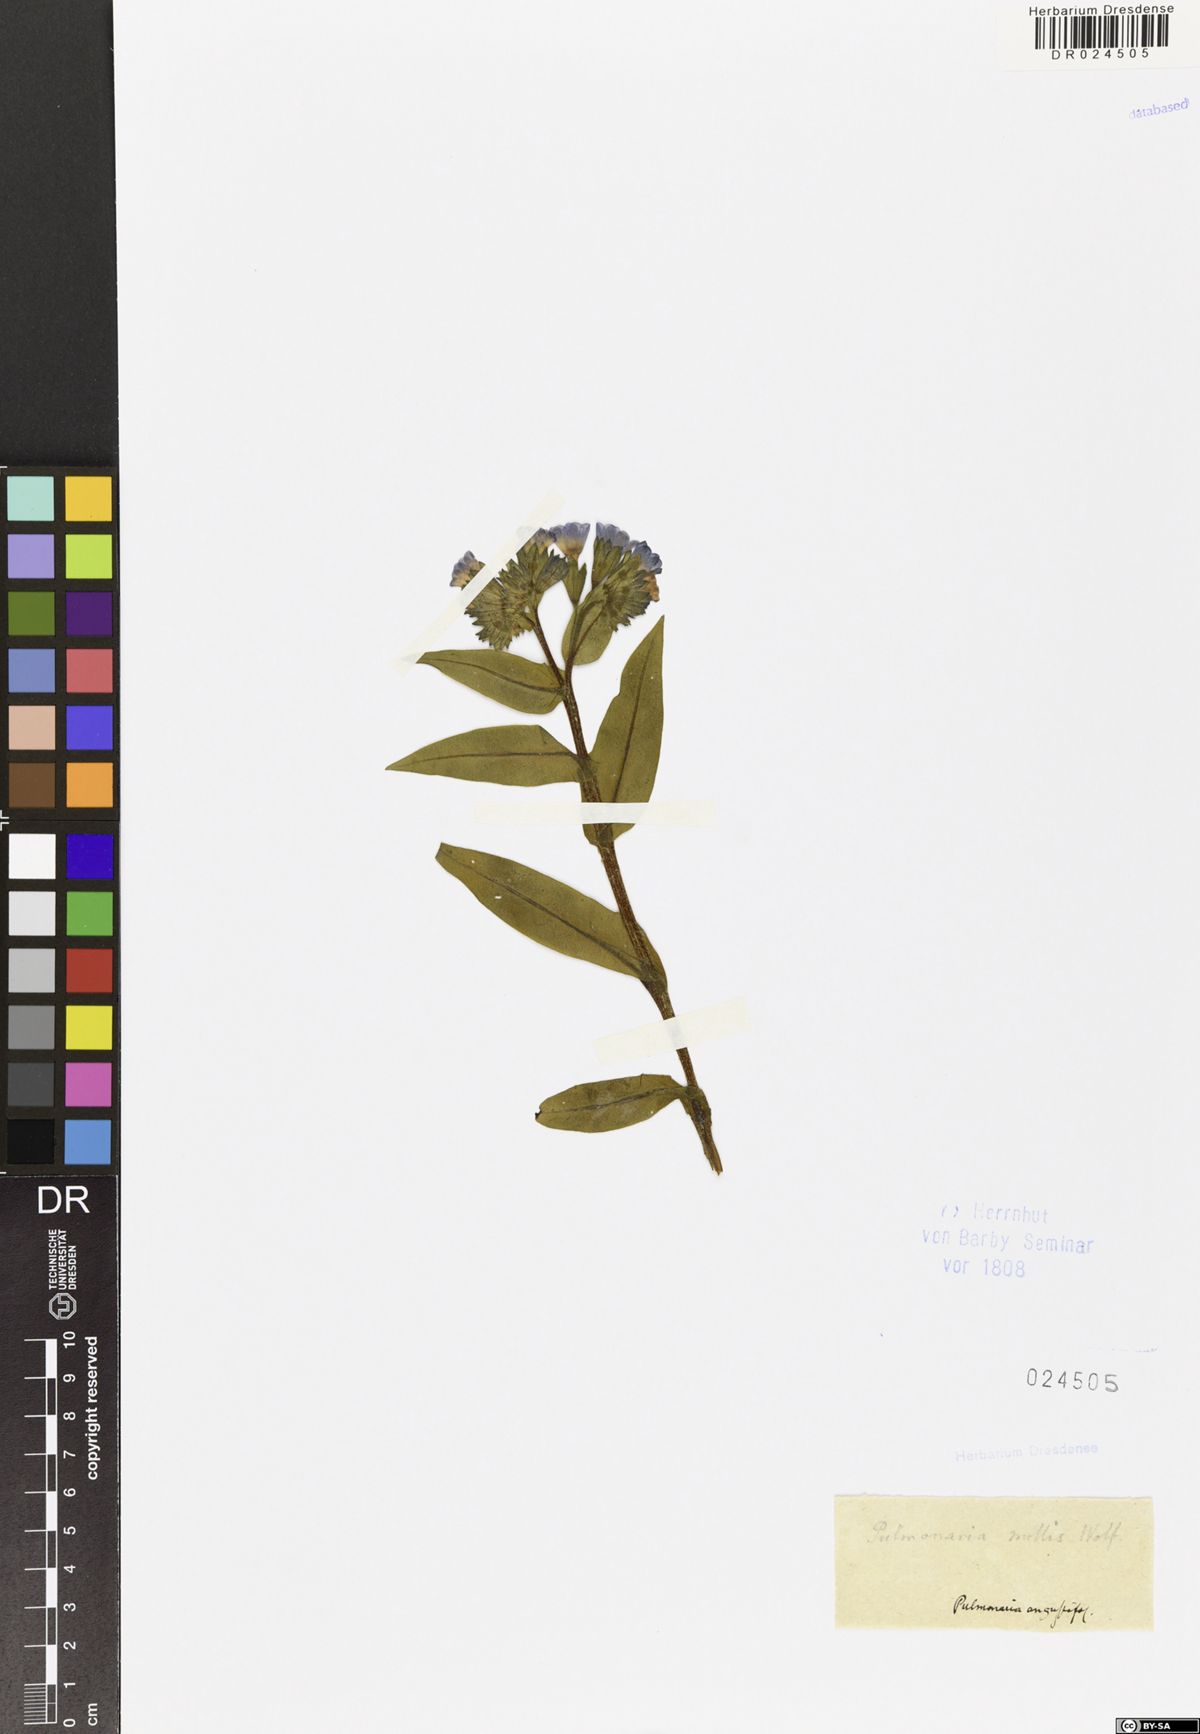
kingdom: Plantae
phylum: Tracheophyta
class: Magnoliopsida
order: Boraginales
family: Boraginaceae
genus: Pulmonaria
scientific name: Pulmonaria angustifolia
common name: Blue cowslip
